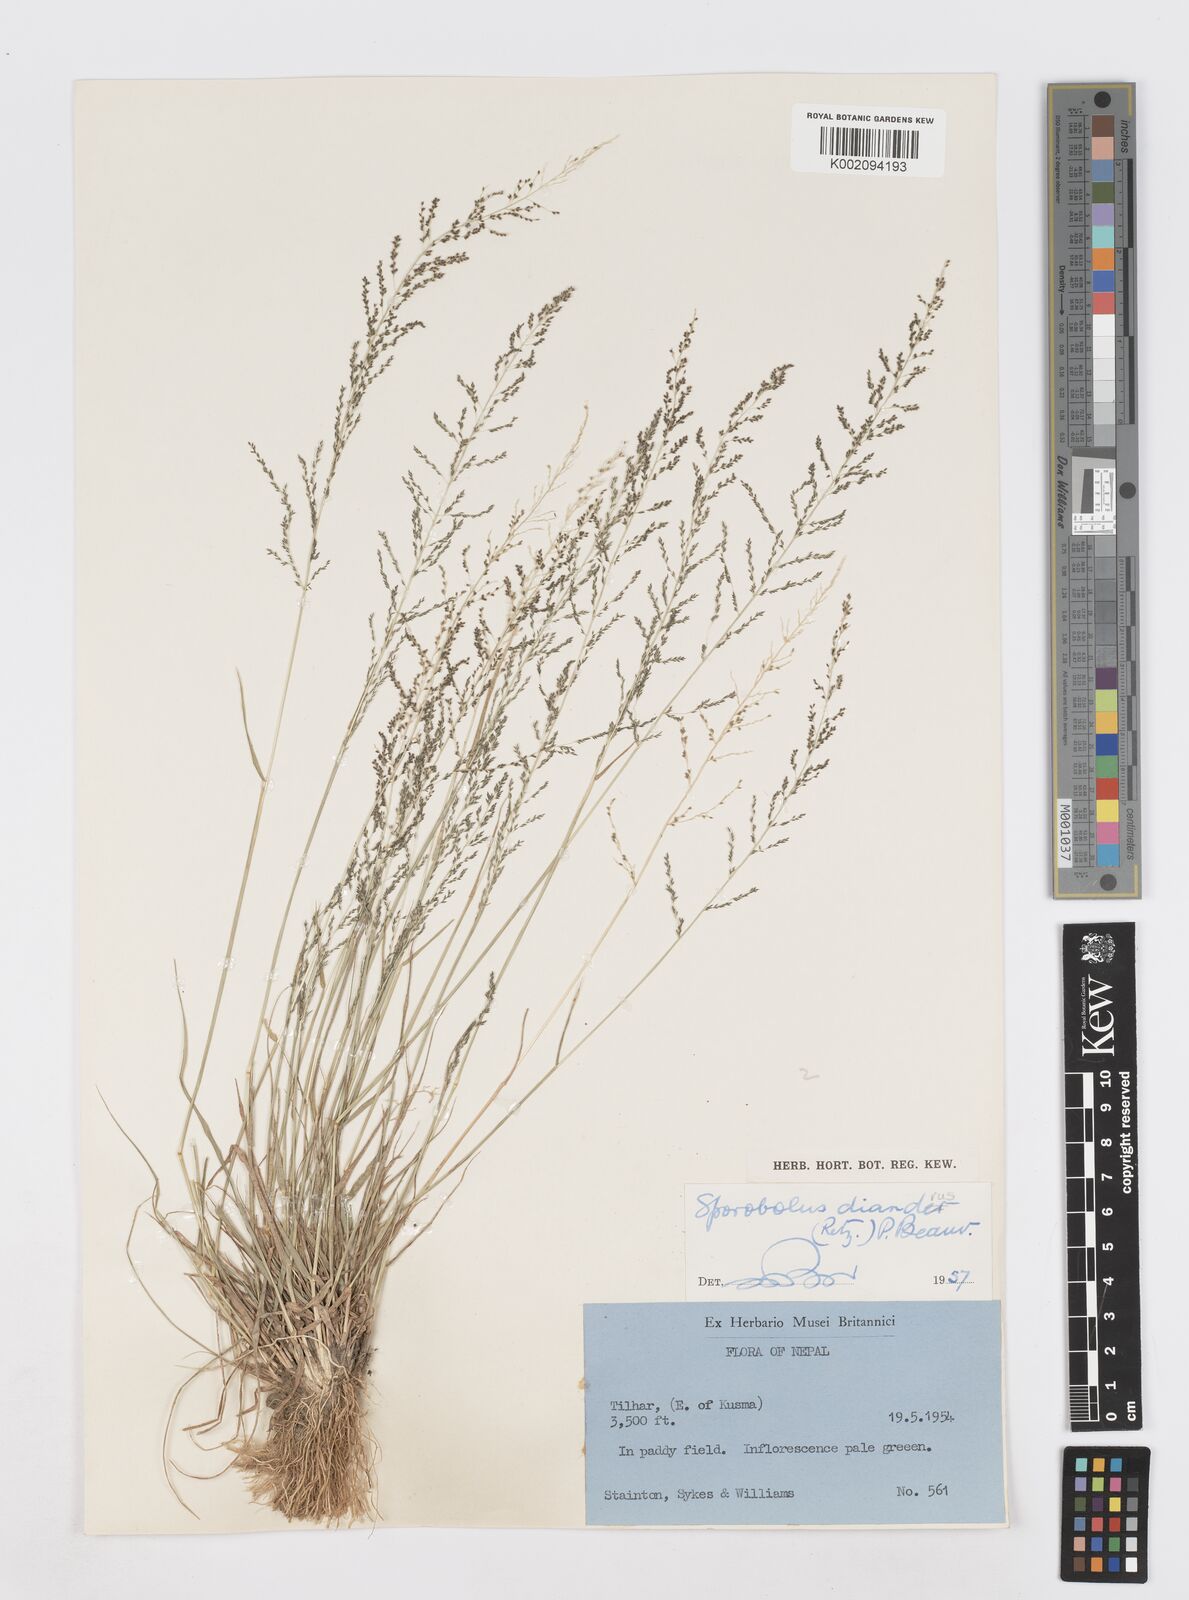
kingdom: Plantae
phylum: Tracheophyta
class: Liliopsida
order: Poales
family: Poaceae
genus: Sporobolus
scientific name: Sporobolus diandrus
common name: Tussock dropseed
